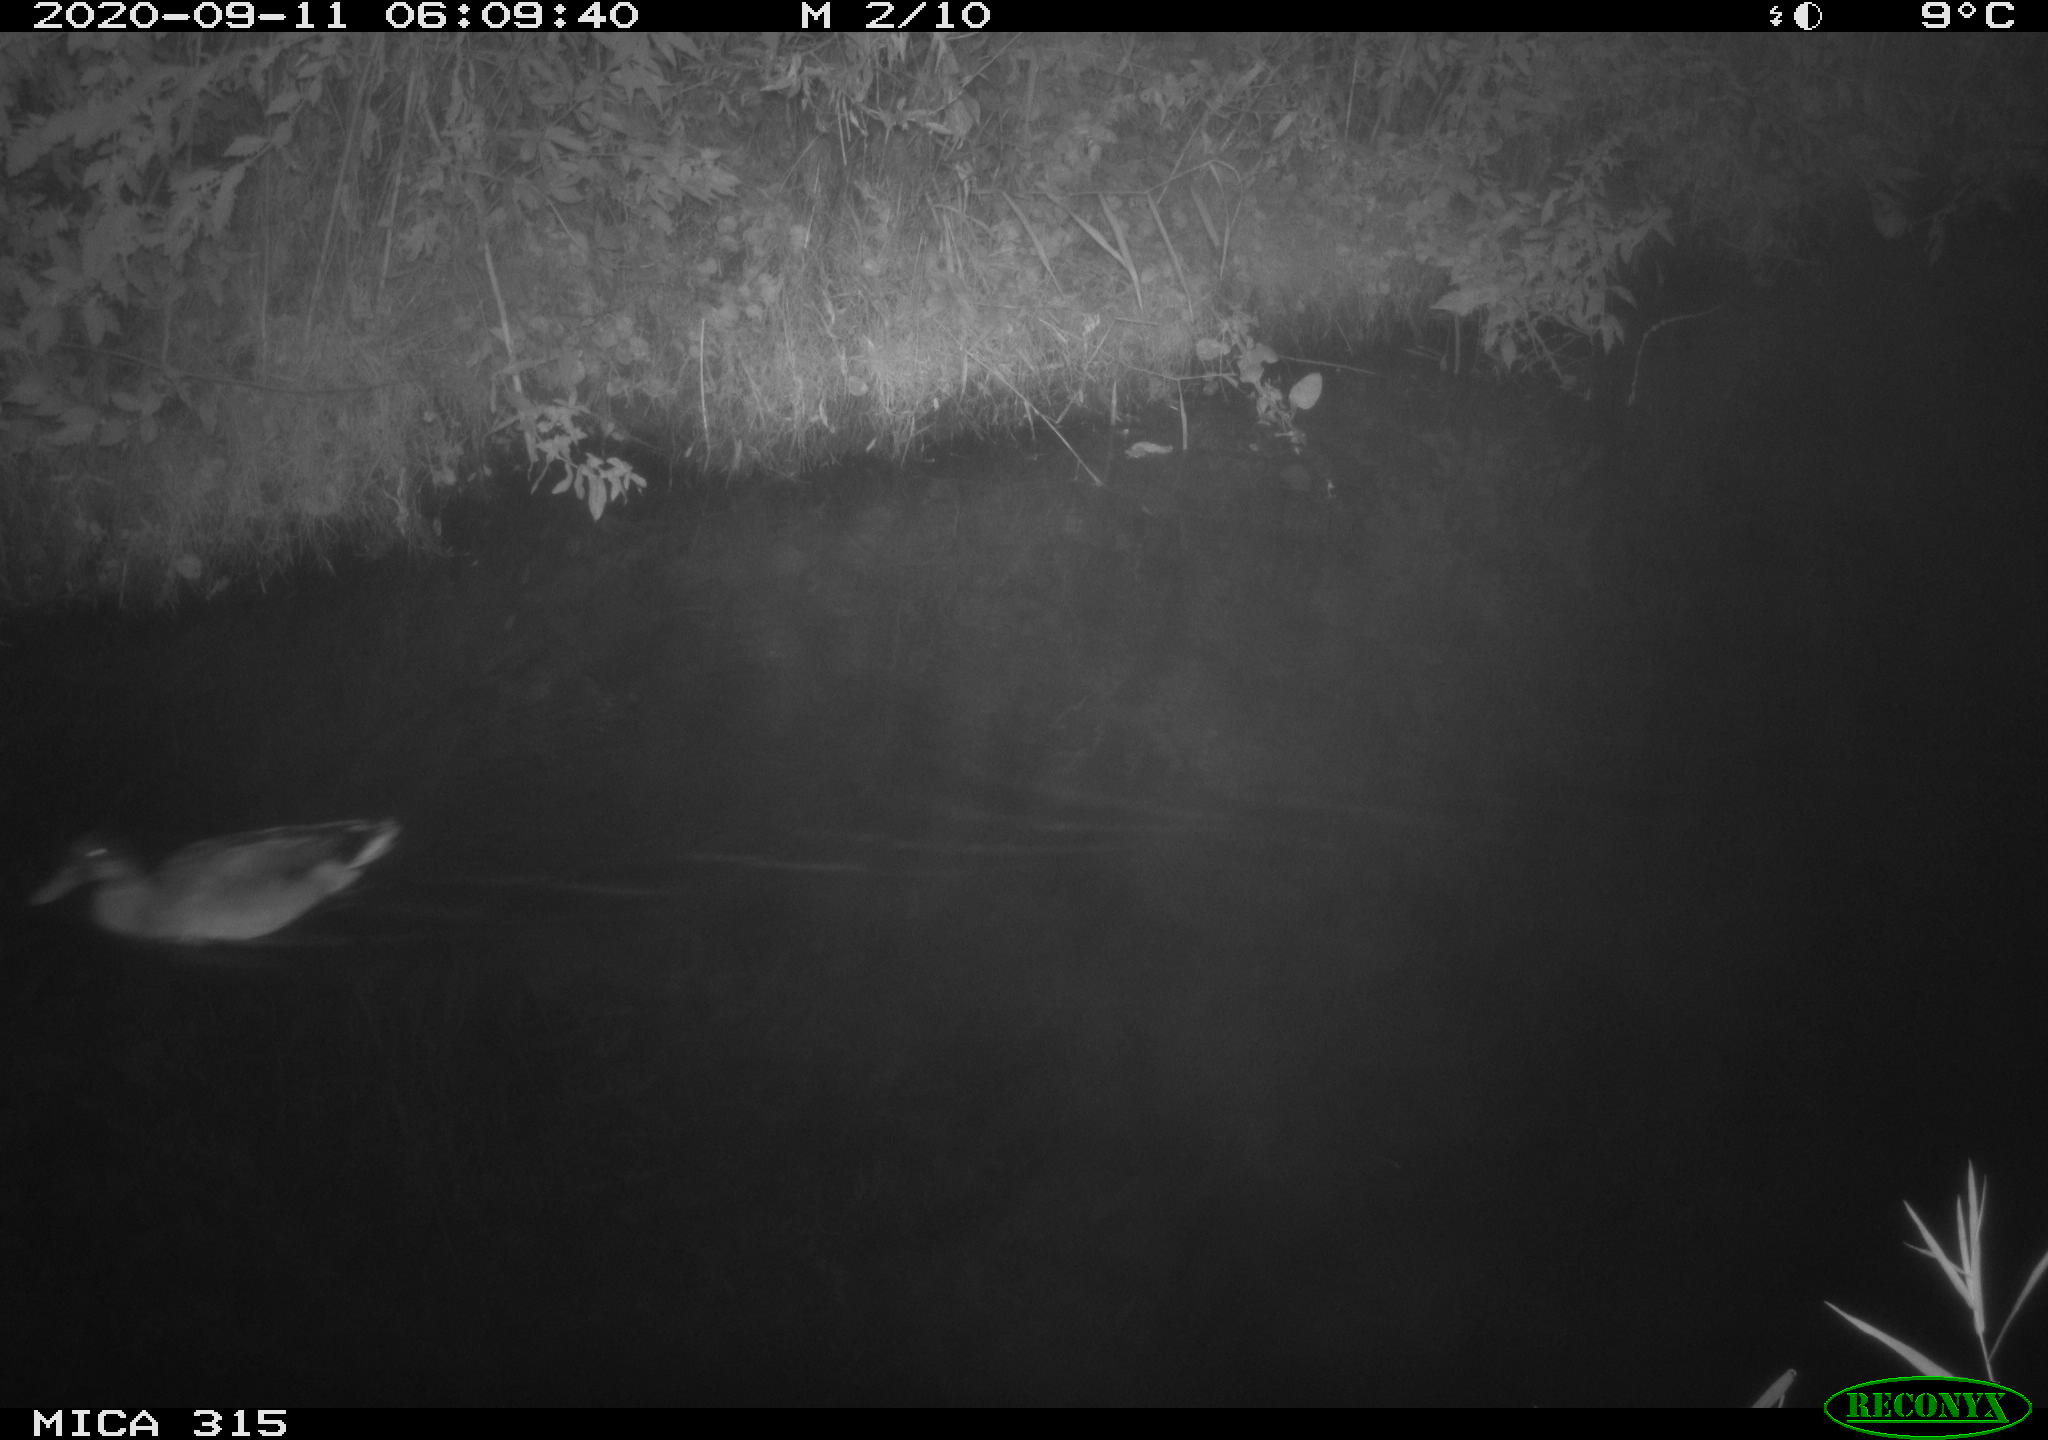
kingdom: Animalia
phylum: Chordata
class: Aves
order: Anseriformes
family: Anatidae
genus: Anas
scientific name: Anas platyrhynchos
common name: Mallard
